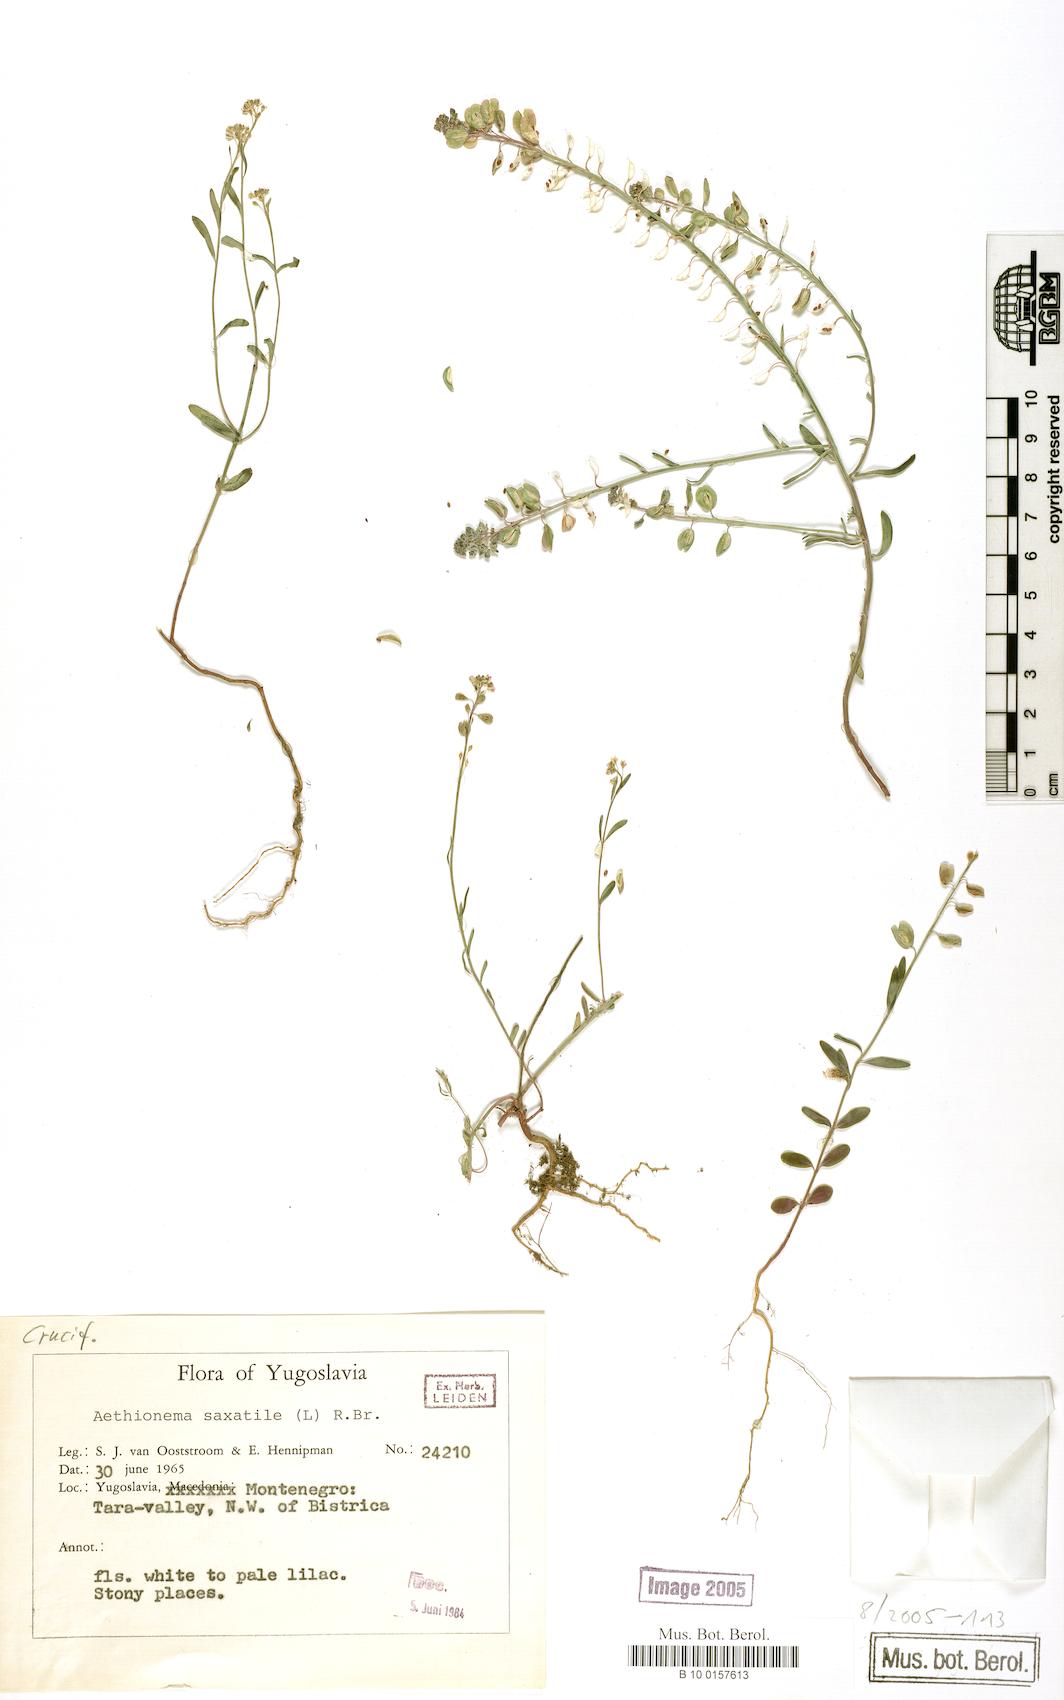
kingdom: Plantae
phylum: Tracheophyta
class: Magnoliopsida
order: Brassicales
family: Brassicaceae
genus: Aethionema
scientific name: Aethionema saxatile
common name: Burnt candytuft
